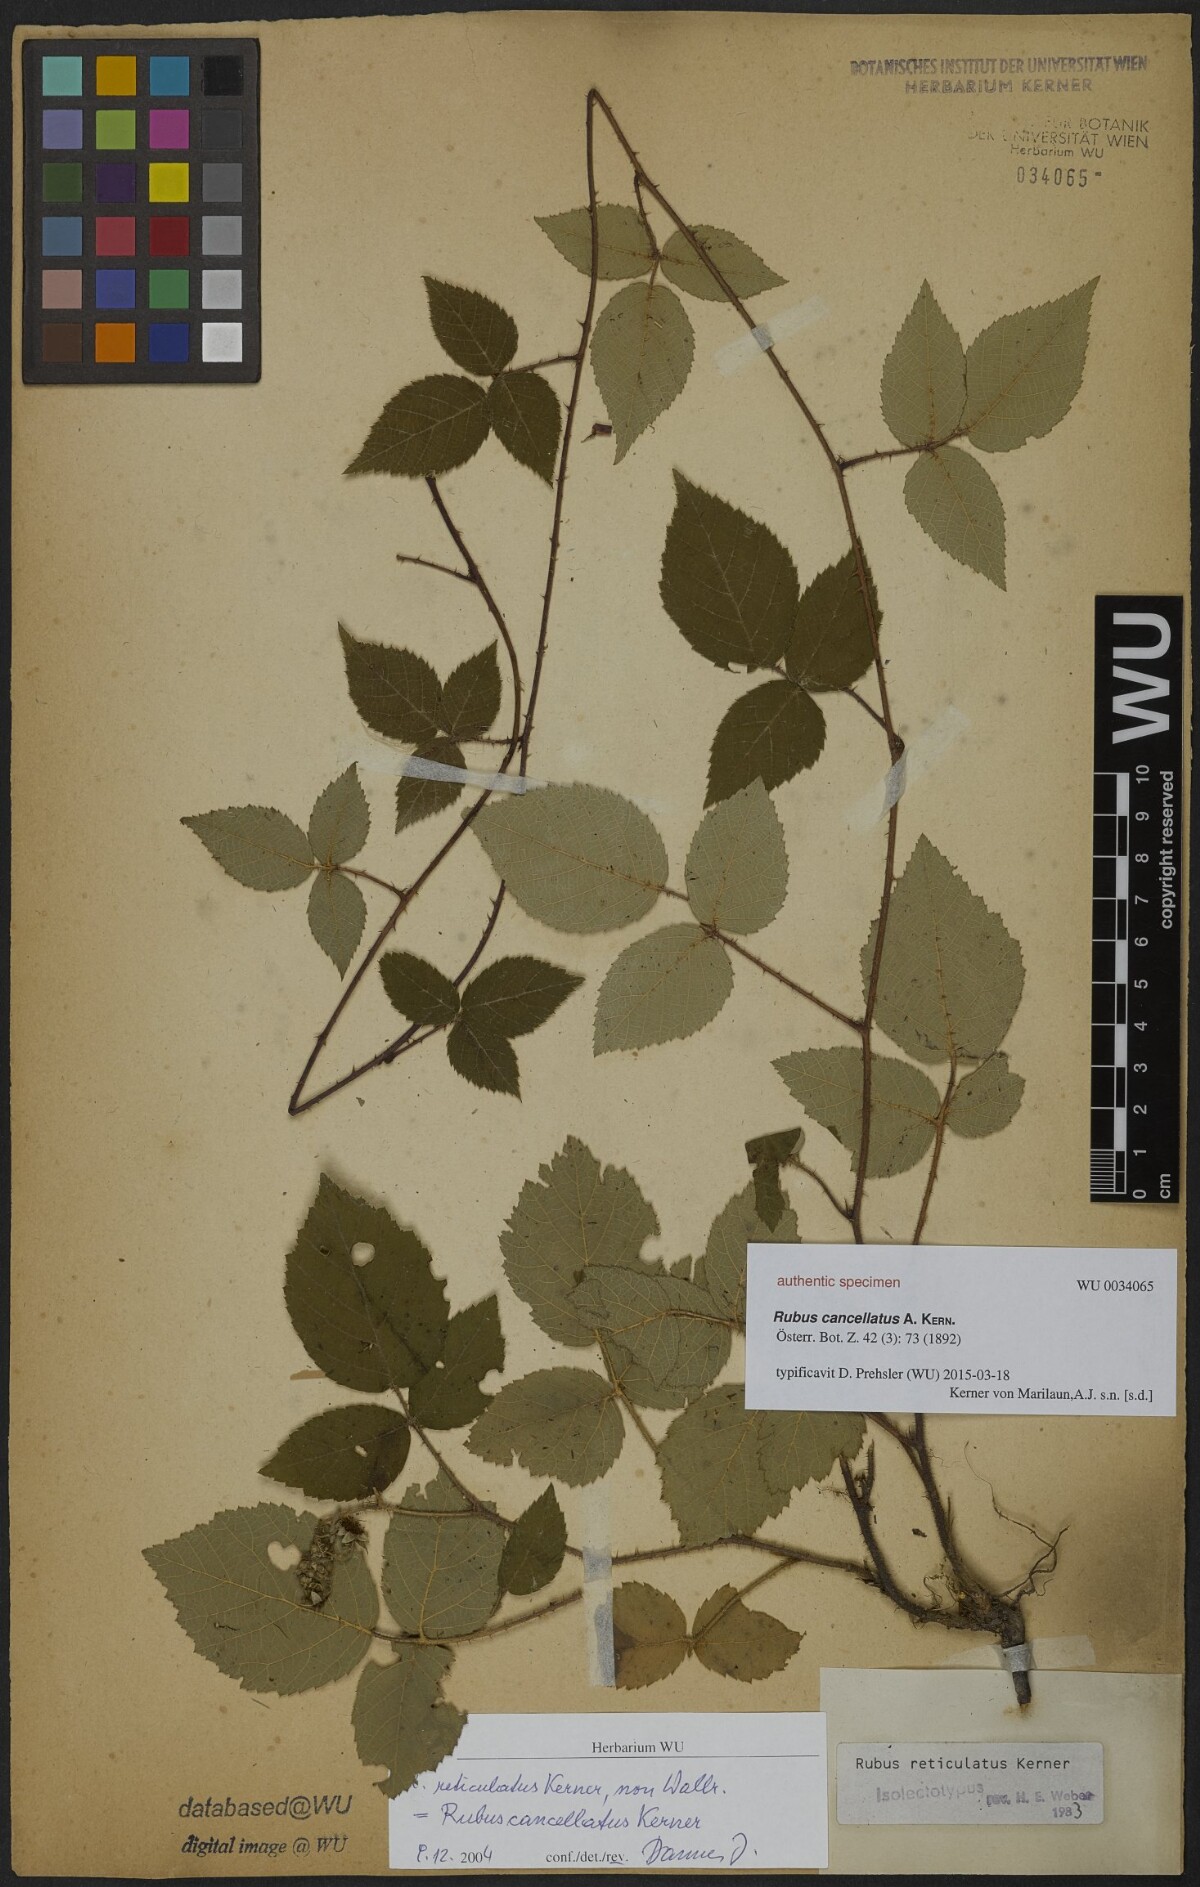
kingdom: Plantae
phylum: Tracheophyta
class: Magnoliopsida
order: Rosales
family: Rosaceae
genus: Rubus
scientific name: Rubus reticulatus
